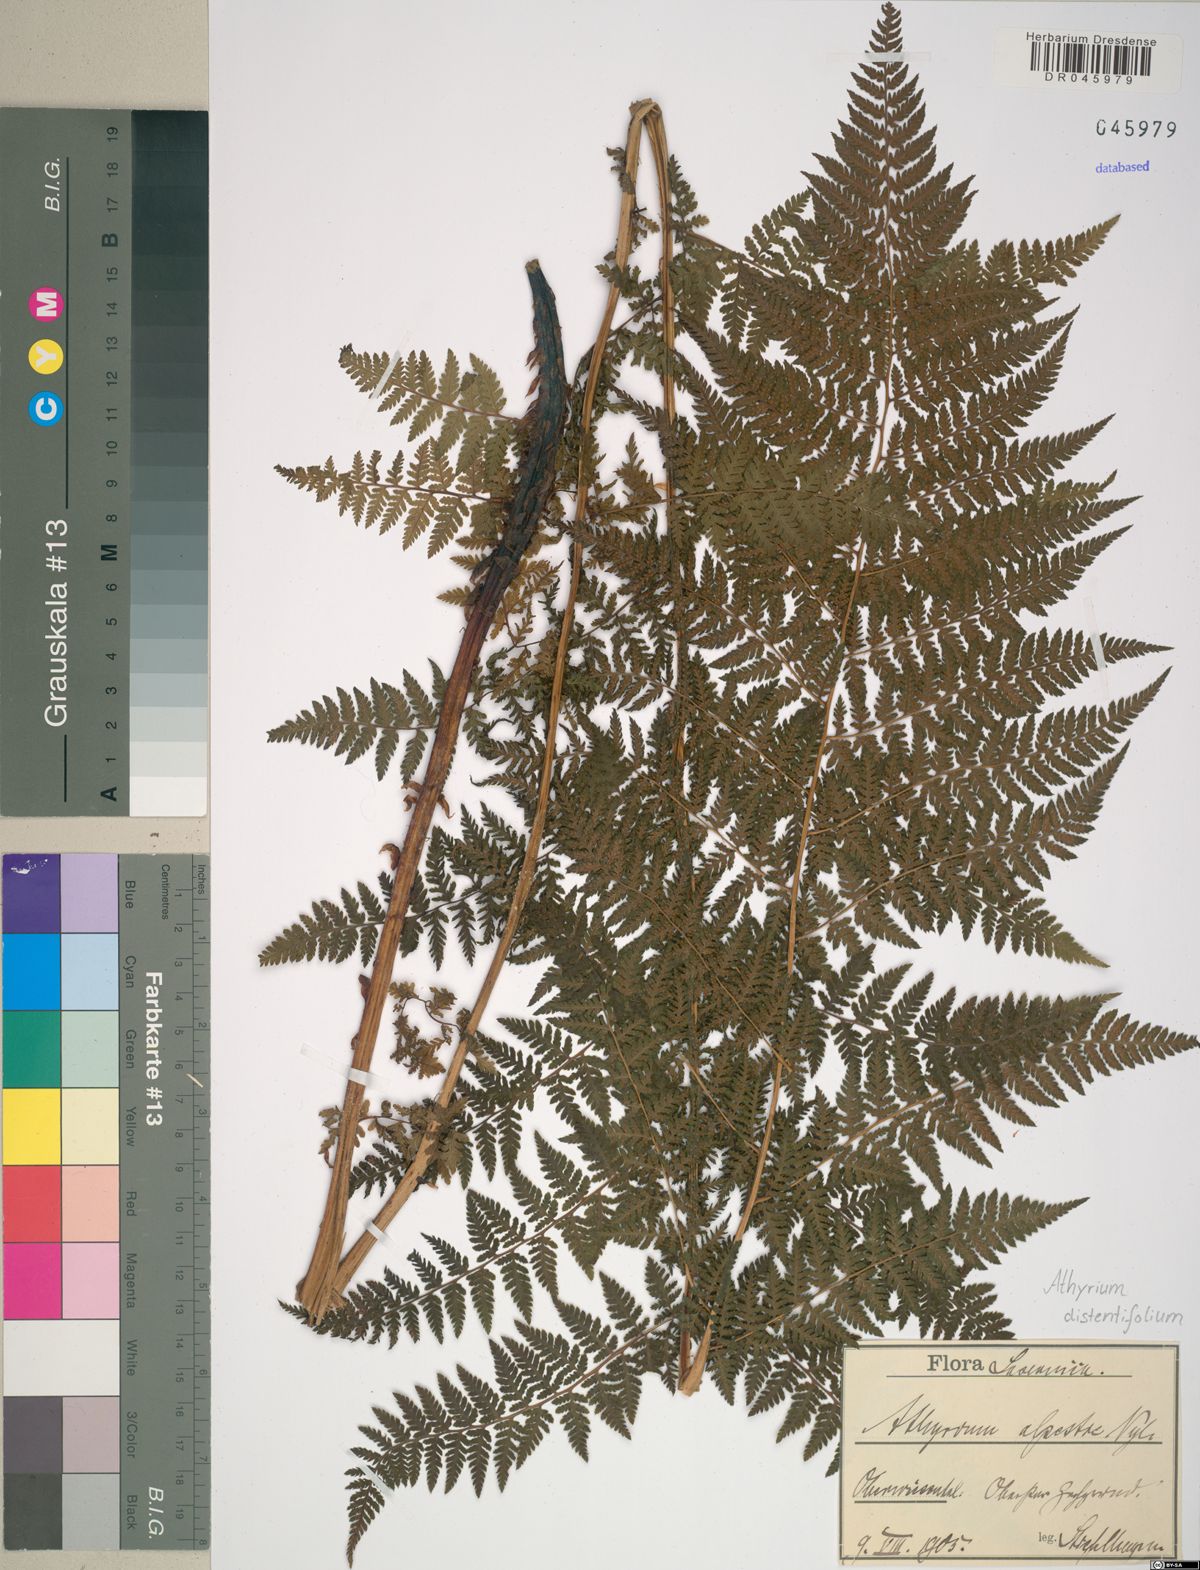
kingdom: Plantae
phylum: Tracheophyta
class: Polypodiopsida
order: Polypodiales
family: Athyriaceae
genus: Pseudathyrium
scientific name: Pseudathyrium alpestre
